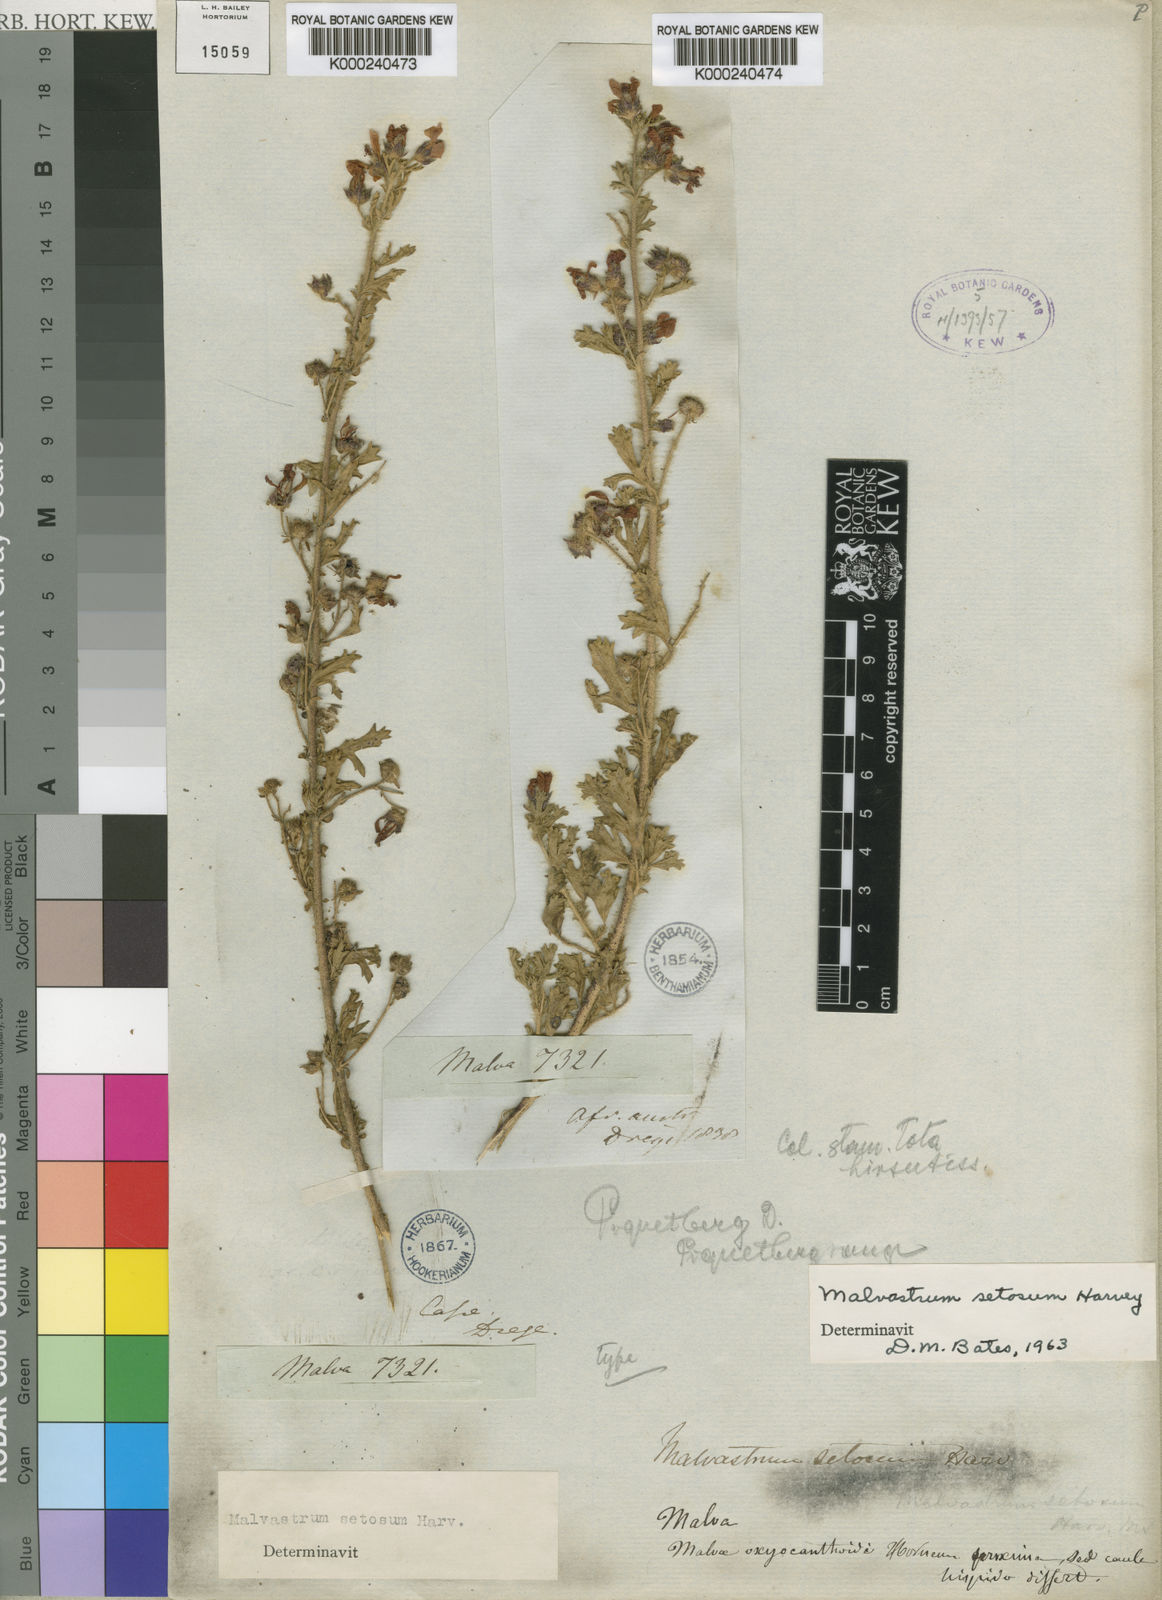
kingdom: Plantae
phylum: Tracheophyta
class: Magnoliopsida
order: Malvales
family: Malvaceae
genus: Anisodontea
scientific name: Anisodontea setosa
